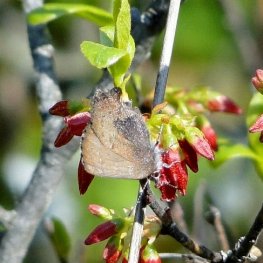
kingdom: Animalia
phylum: Arthropoda
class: Insecta
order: Lepidoptera
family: Lycaenidae
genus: Incisalia
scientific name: Incisalia irioides
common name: Brown Elfin
